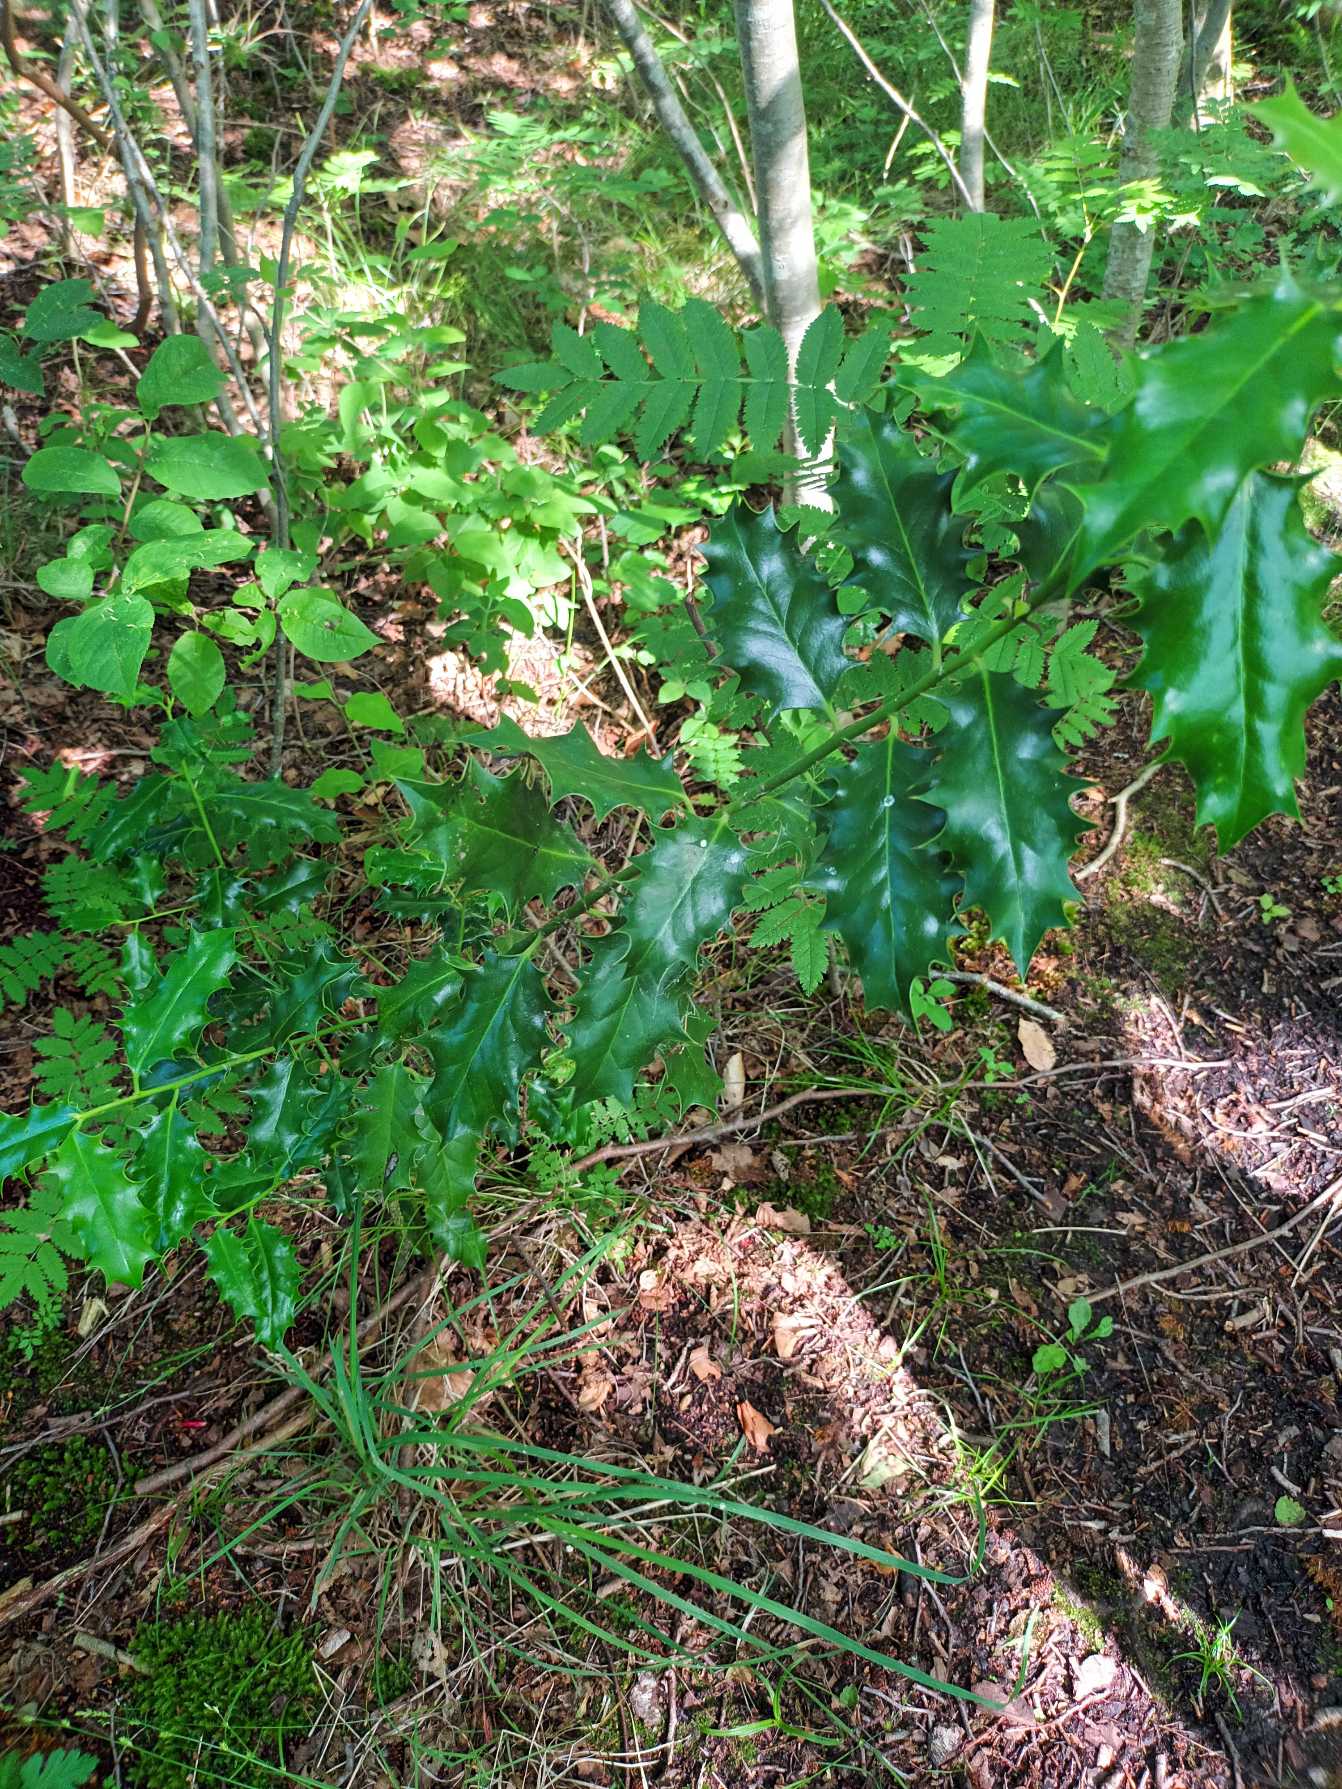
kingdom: Plantae
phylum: Tracheophyta
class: Magnoliopsida
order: Aquifoliales
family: Aquifoliaceae
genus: Ilex
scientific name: Ilex aquifolium
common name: Kristtorn
